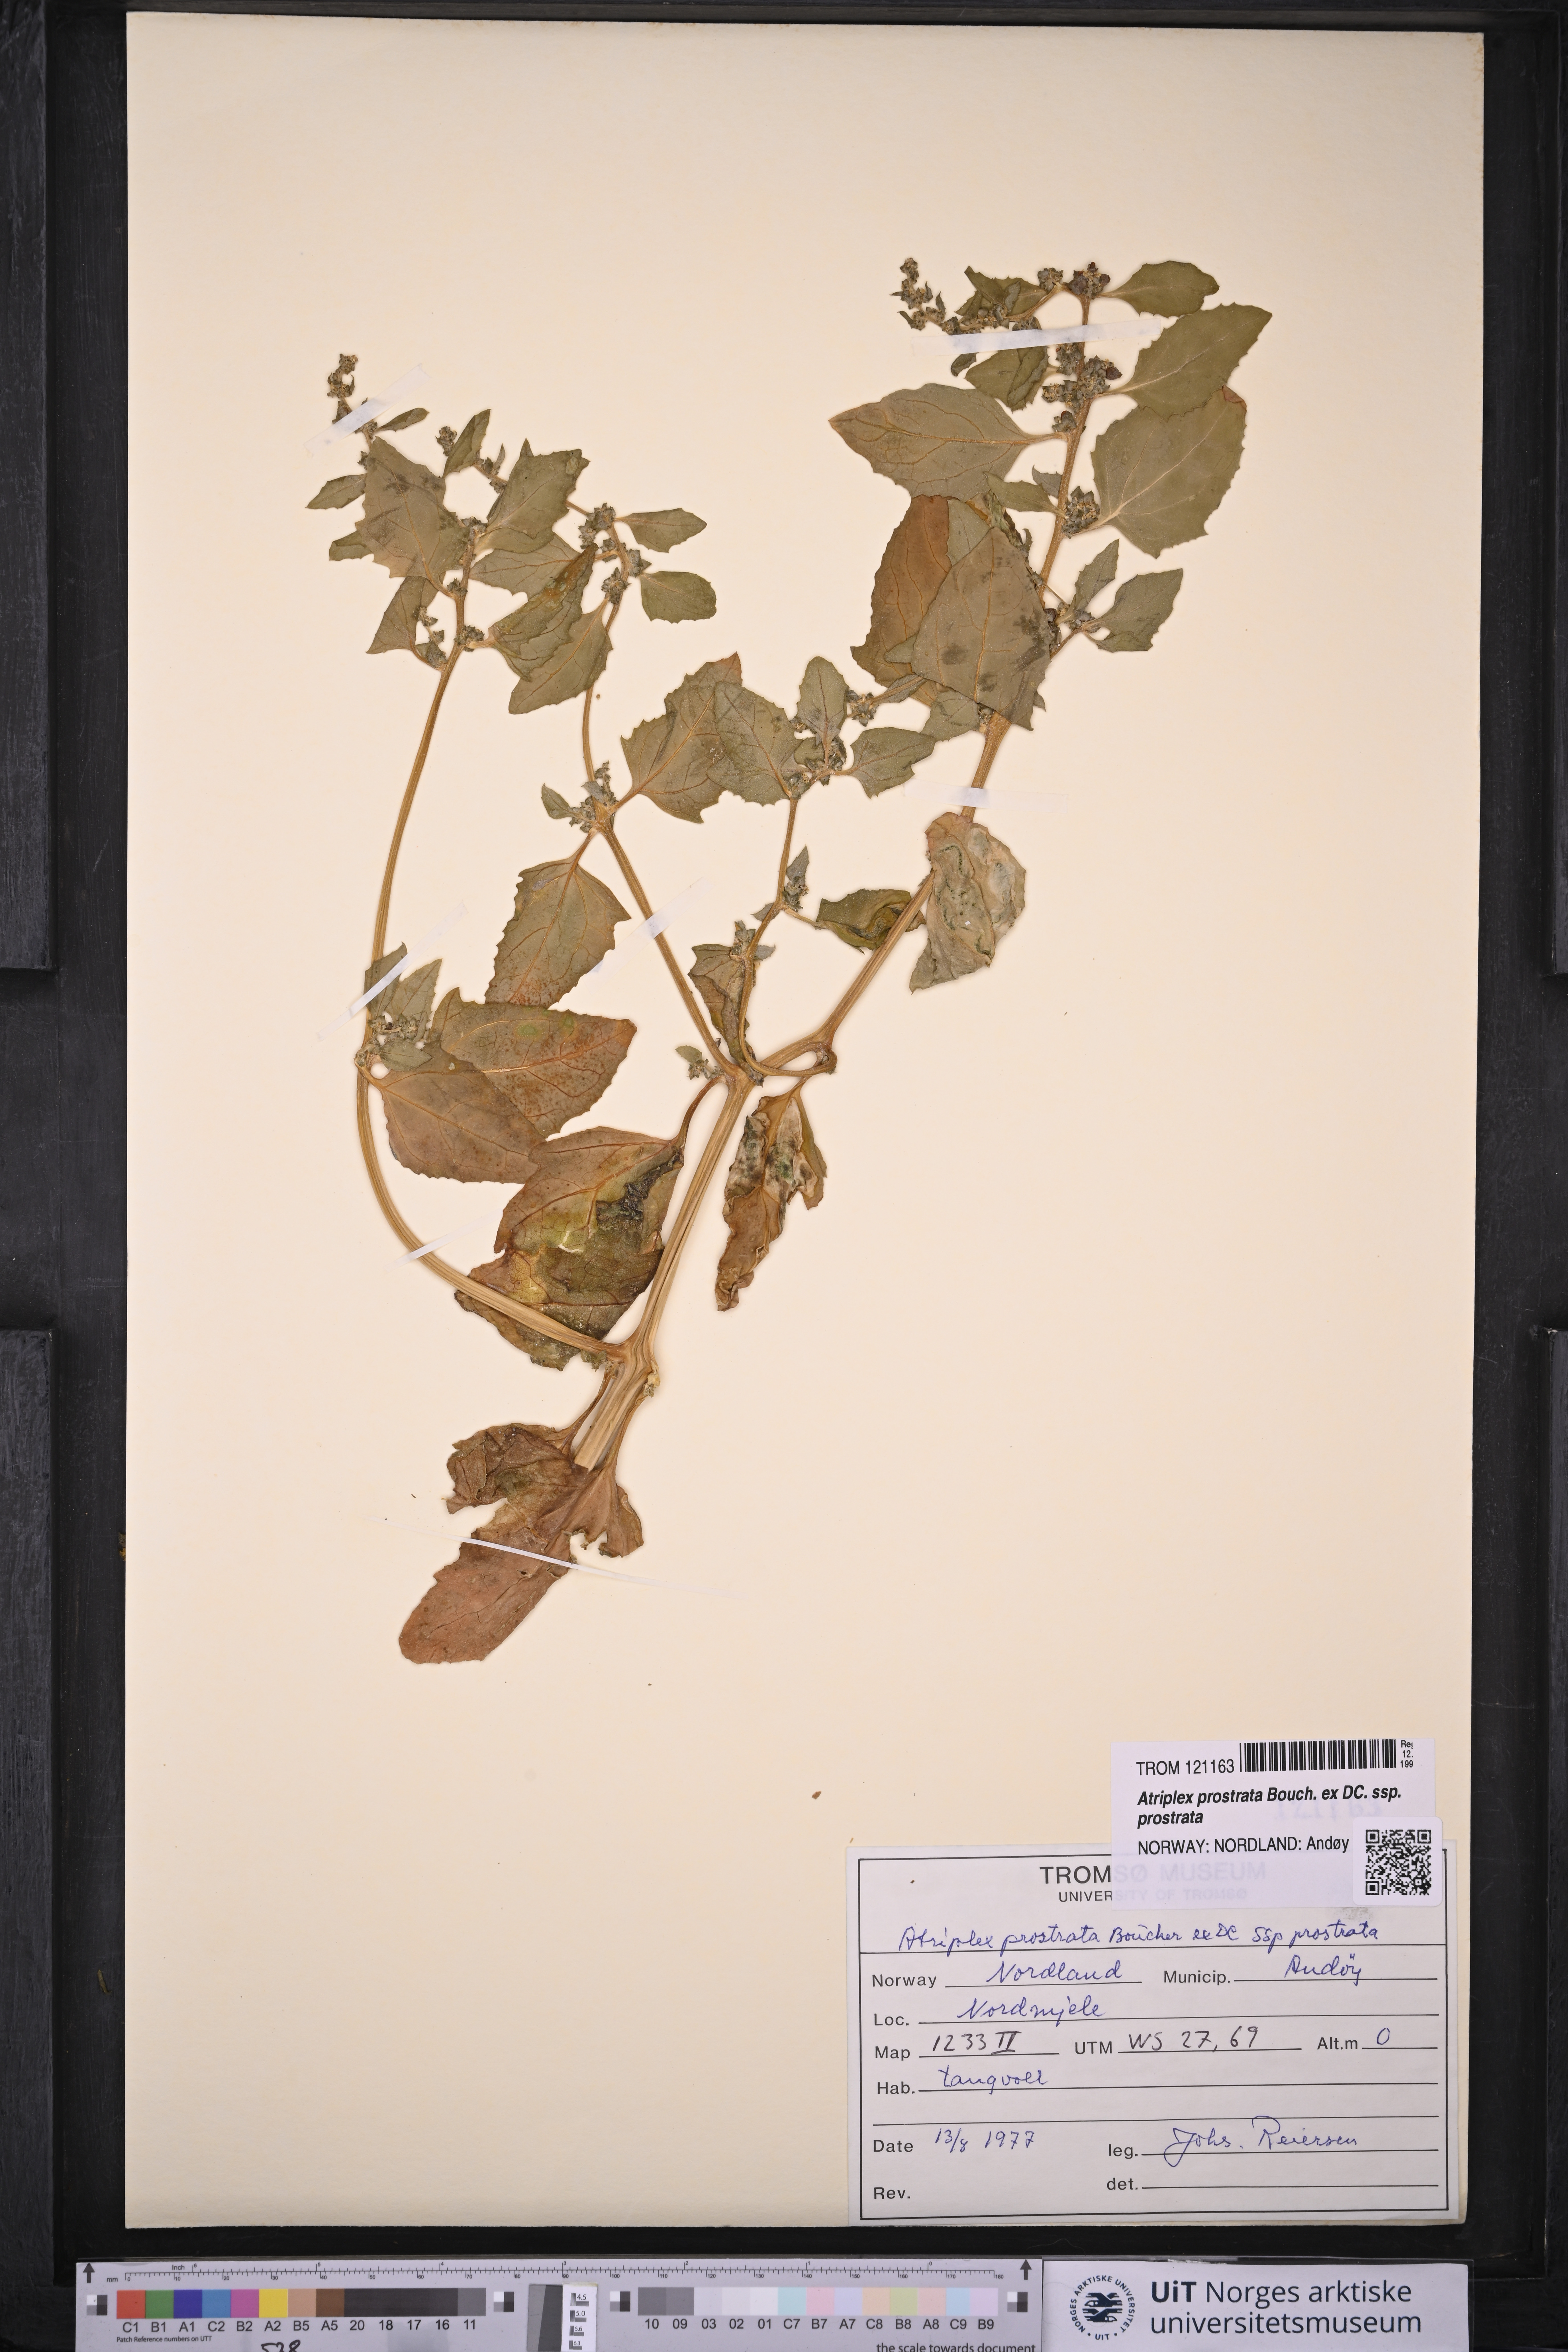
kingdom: Plantae
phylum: Tracheophyta
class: Magnoliopsida
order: Caryophyllales
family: Amaranthaceae
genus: Atriplex
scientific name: Atriplex prostrata
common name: Spear-leaved orache
